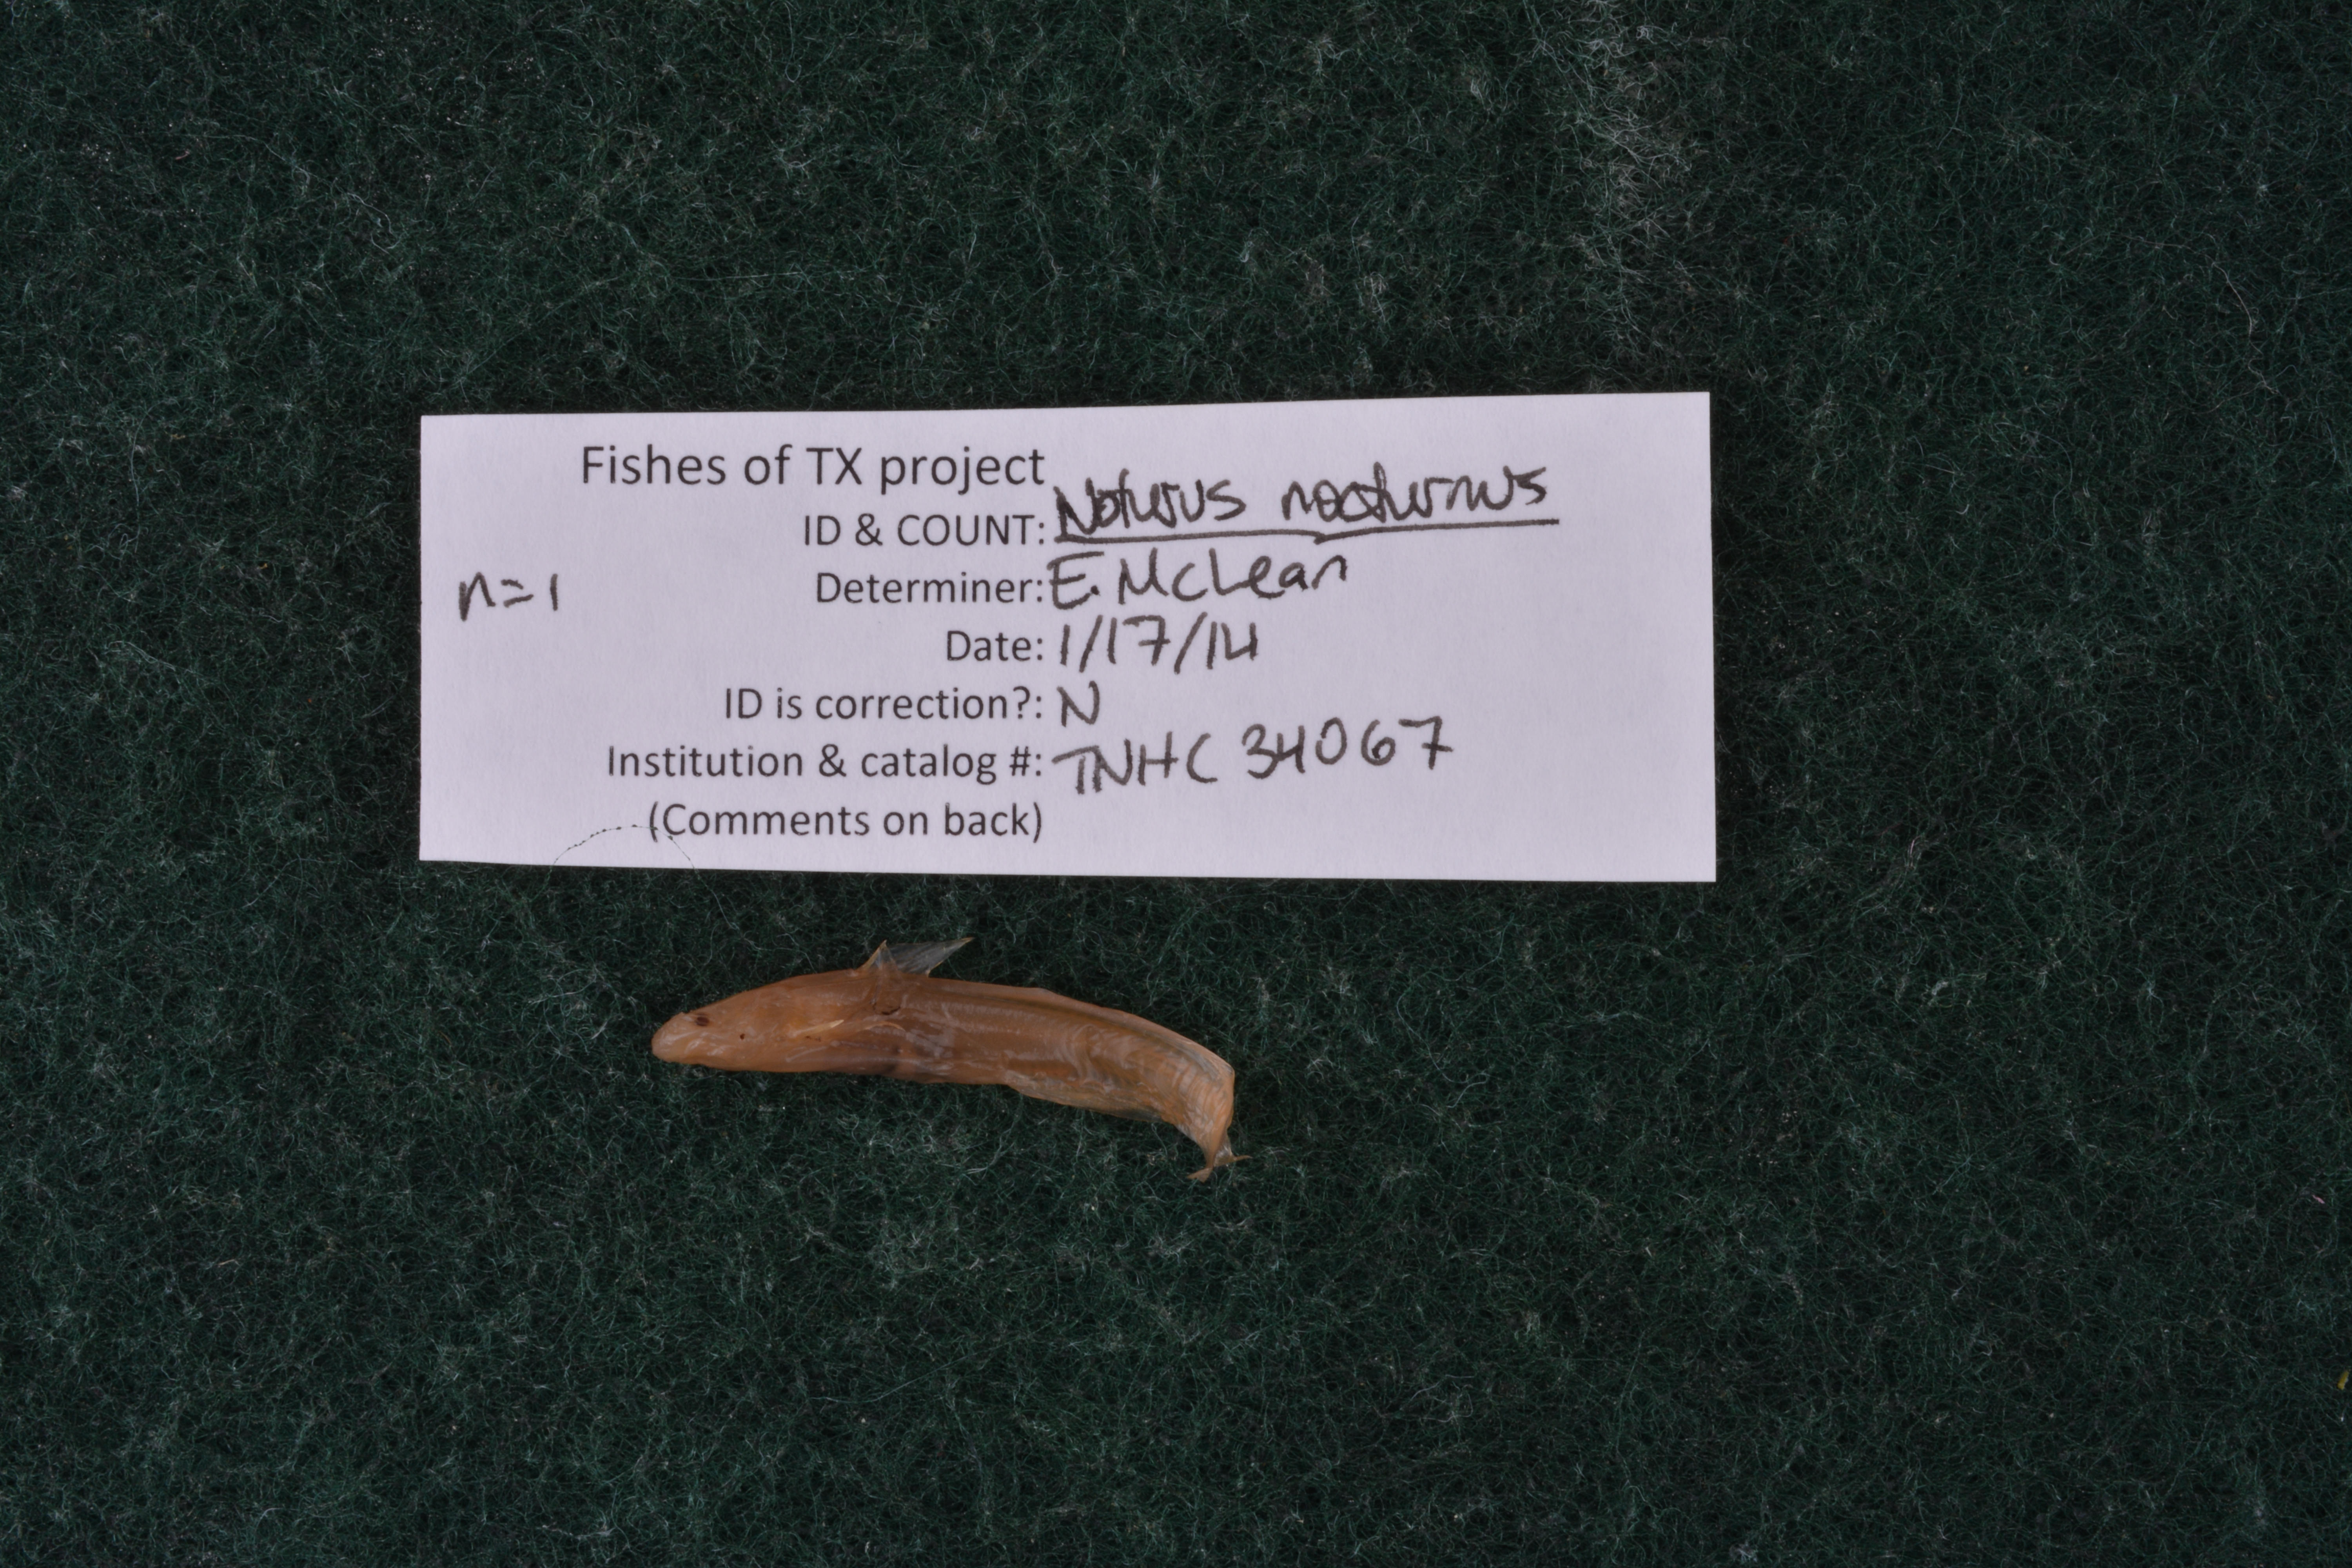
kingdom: Animalia
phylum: Chordata
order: Siluriformes
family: Ictaluridae
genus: Noturus
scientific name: Noturus nocturnus
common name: Freckled madtom
